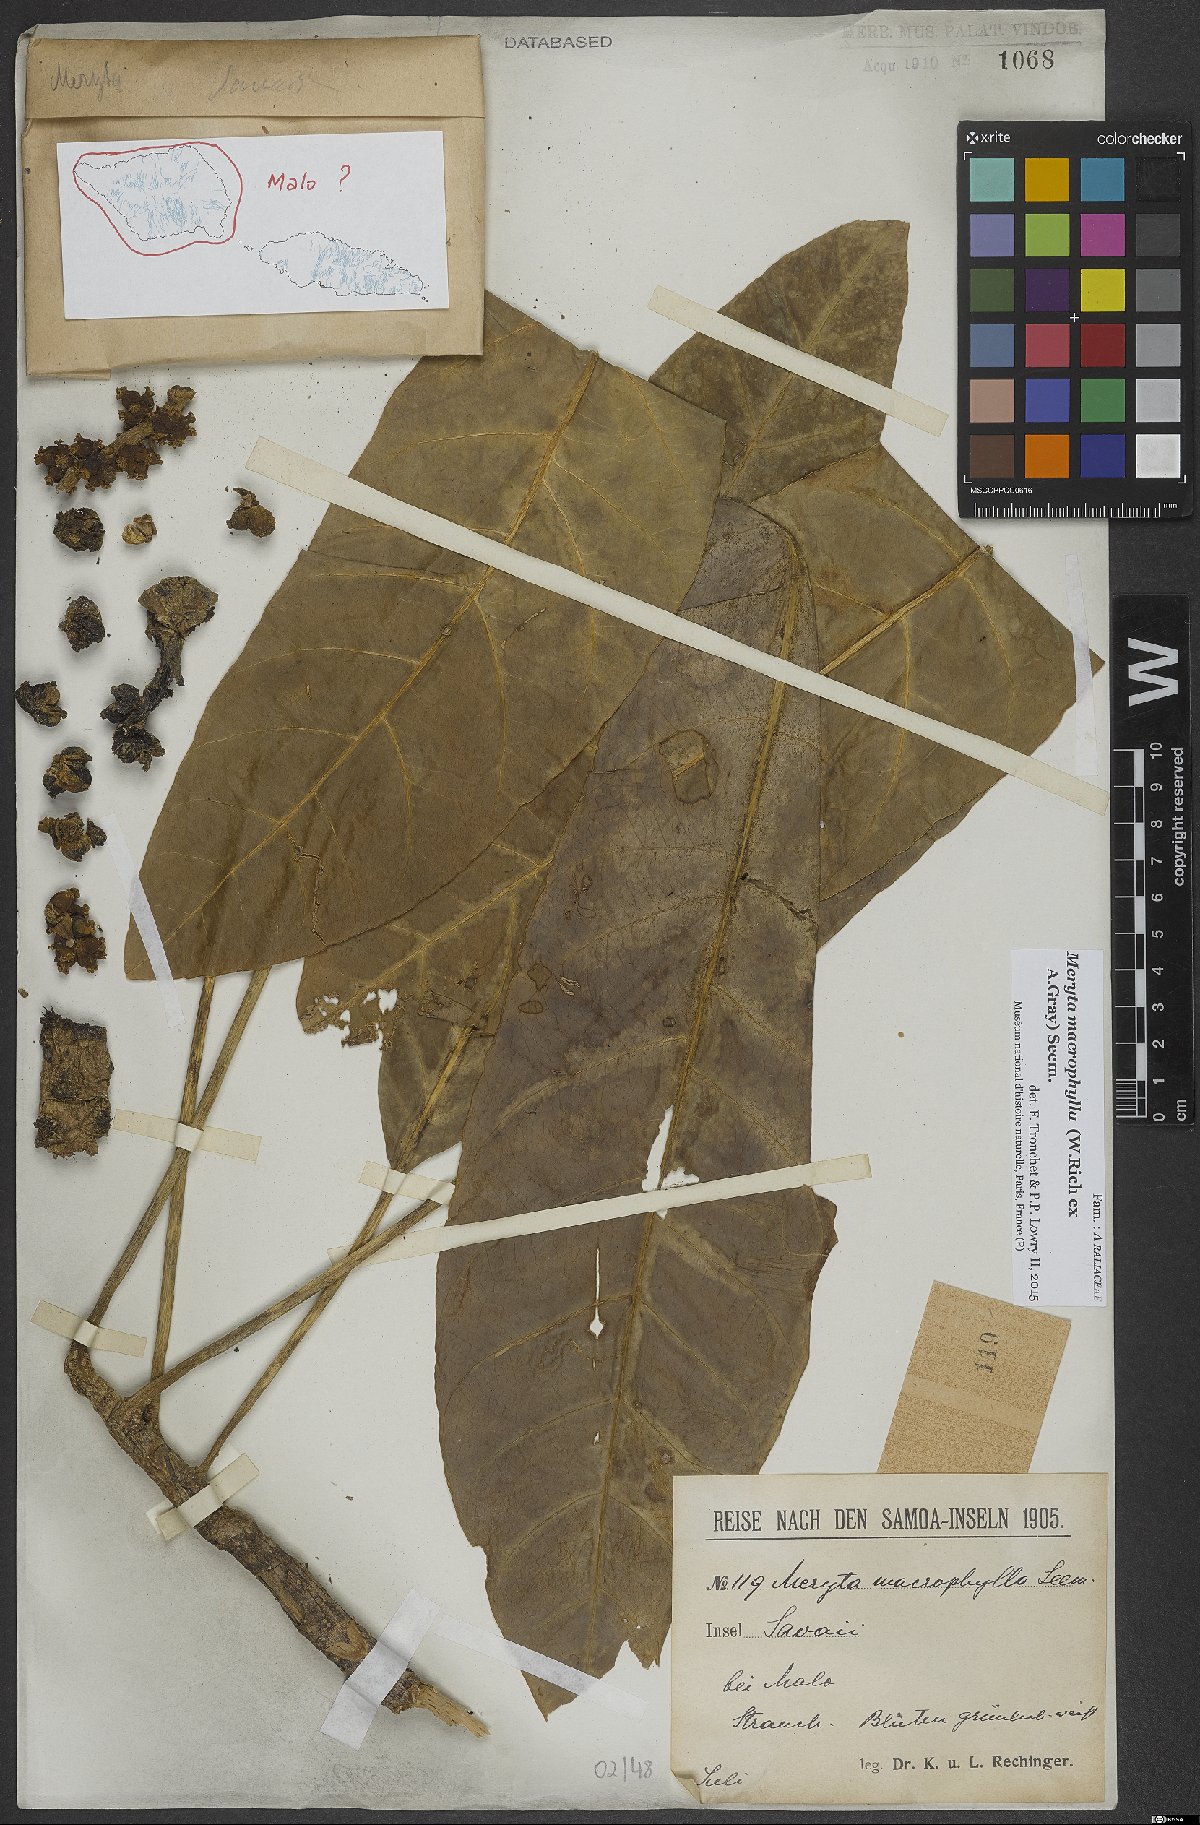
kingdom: Plantae
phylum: Tracheophyta
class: Magnoliopsida
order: Apiales
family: Araliaceae
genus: Meryta
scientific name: Meryta macrophylla
